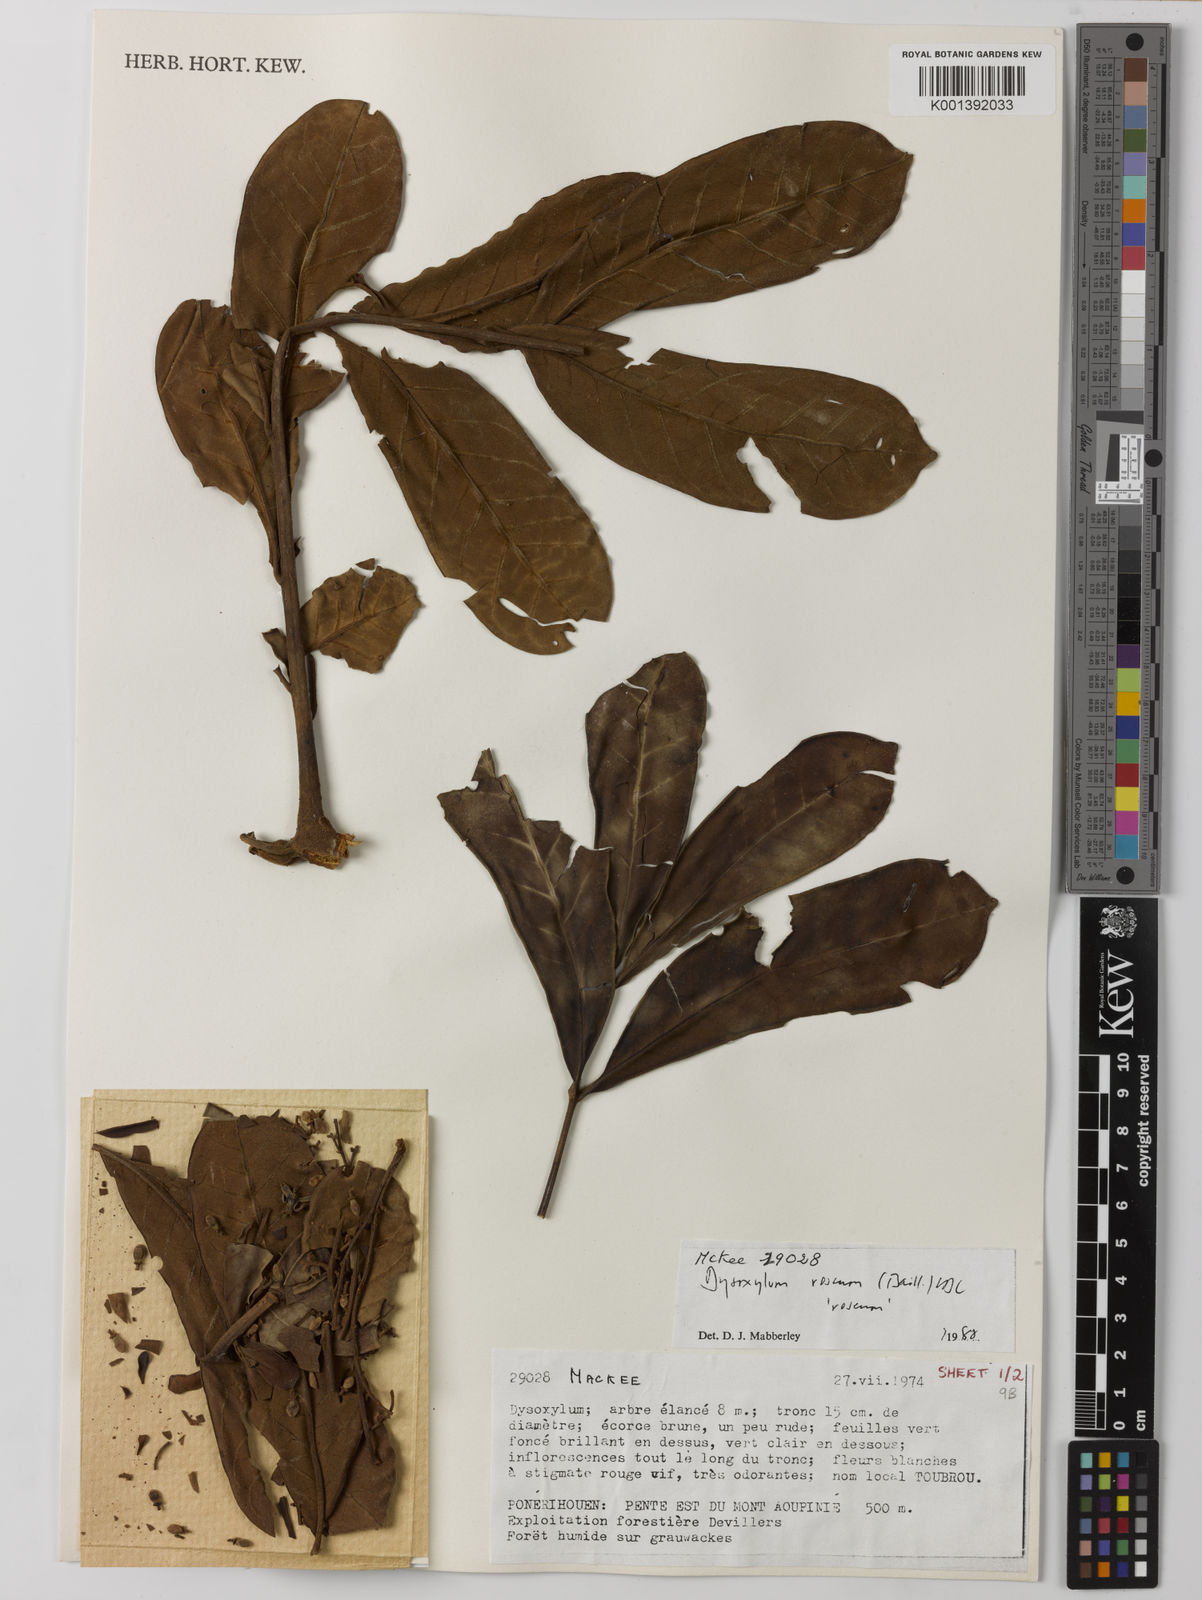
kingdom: Plantae
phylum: Tracheophyta
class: Magnoliopsida
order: Sapindales
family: Meliaceae
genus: Didymocheton
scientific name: Didymocheton roseus
